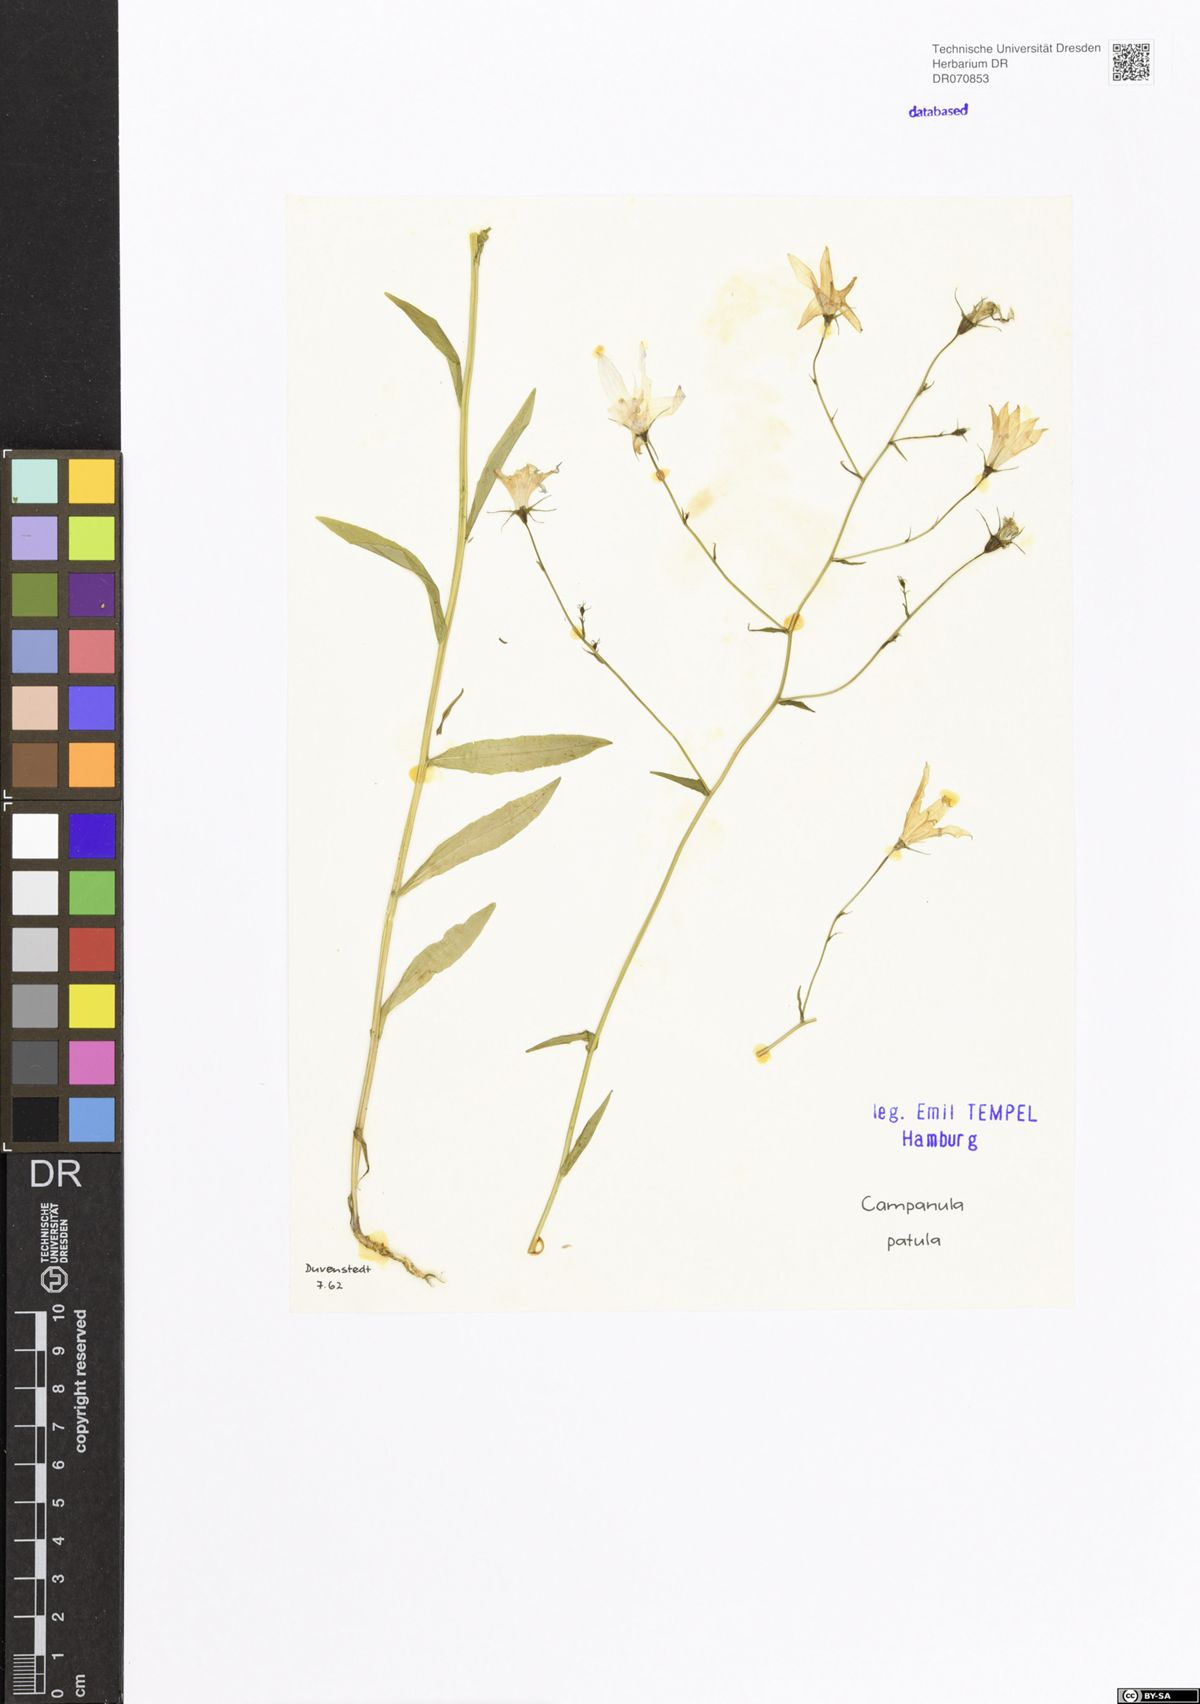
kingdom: Plantae
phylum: Tracheophyta
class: Magnoliopsida
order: Asterales
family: Campanulaceae
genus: Campanula
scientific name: Campanula patula
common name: Spreading bellflower
